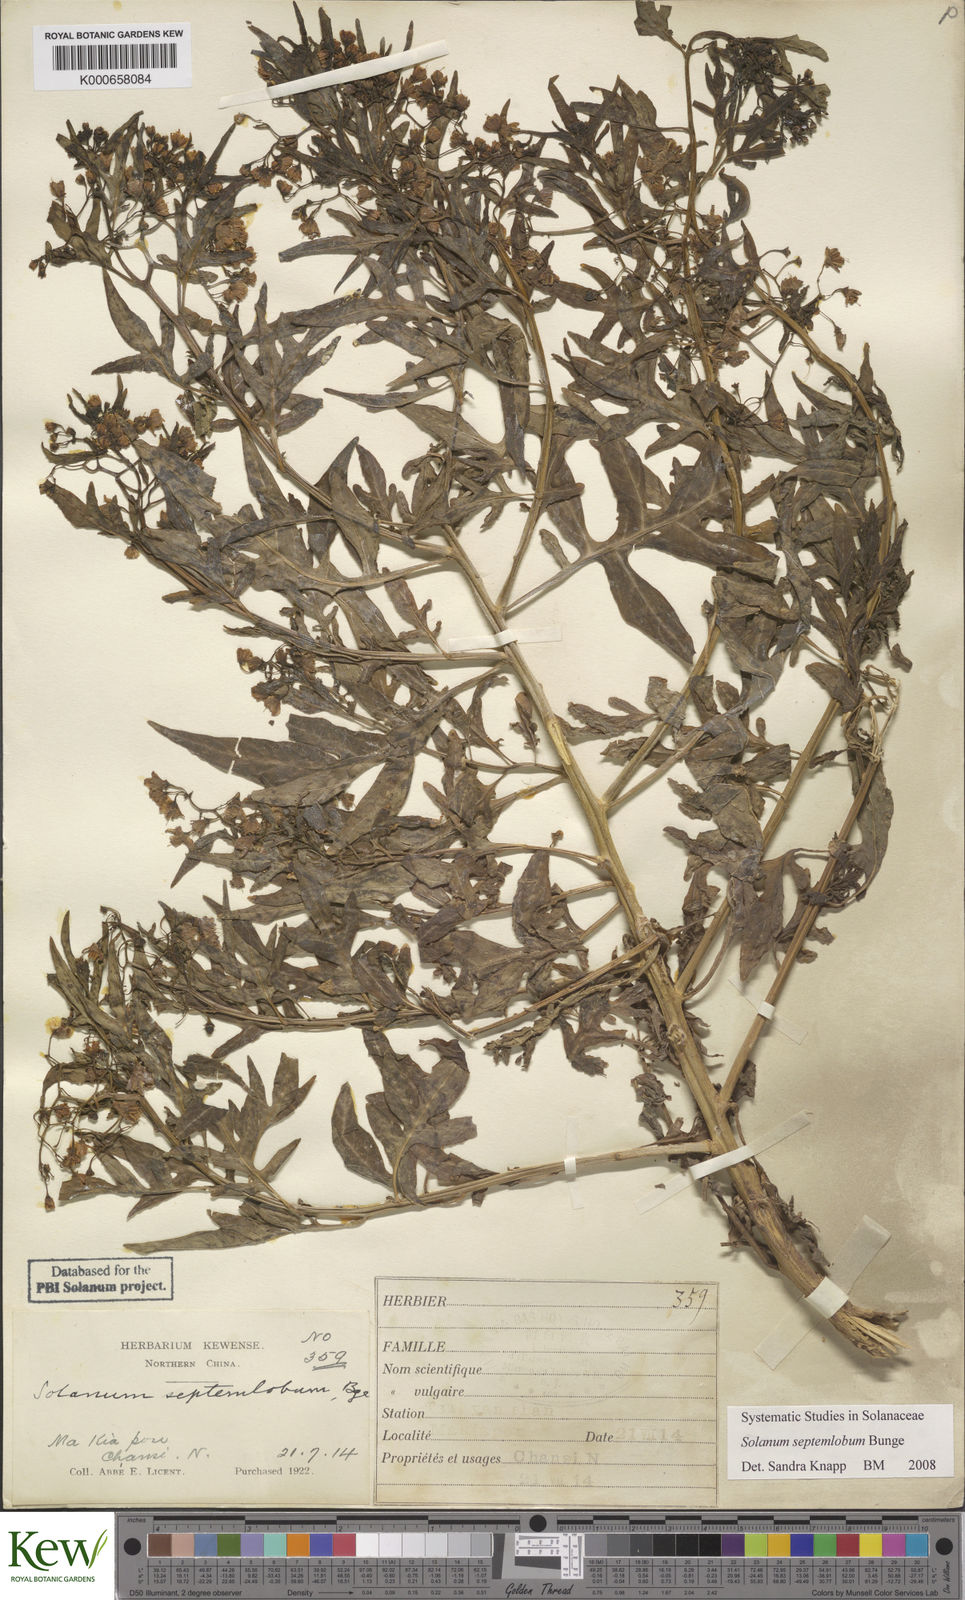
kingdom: Plantae
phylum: Tracheophyta
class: Magnoliopsida
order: Solanales
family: Solanaceae
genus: Solanum
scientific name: Solanum septemlobum
